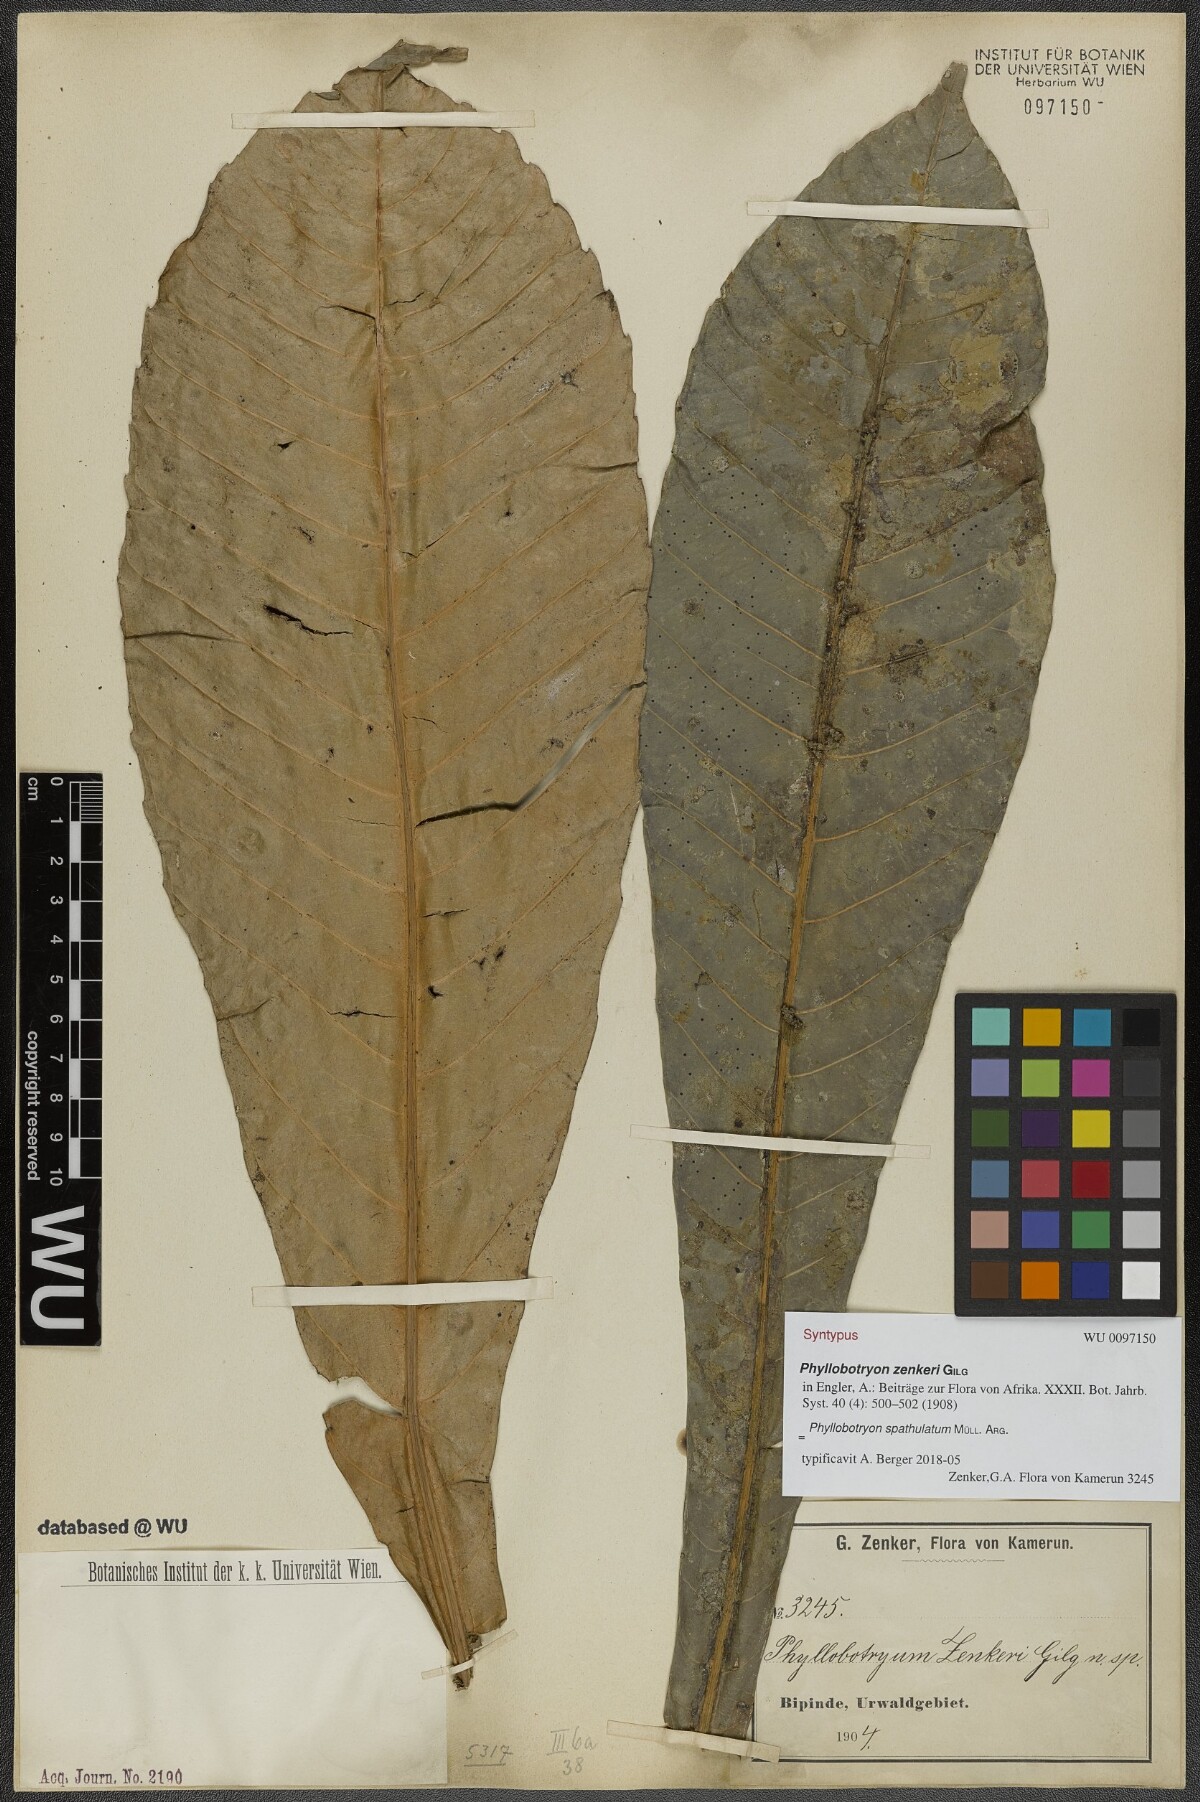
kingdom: Plantae
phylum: Tracheophyta
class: Magnoliopsida
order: Malpighiales
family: Salicaceae
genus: Phyllobotryon
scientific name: Phyllobotryon spathulatum
